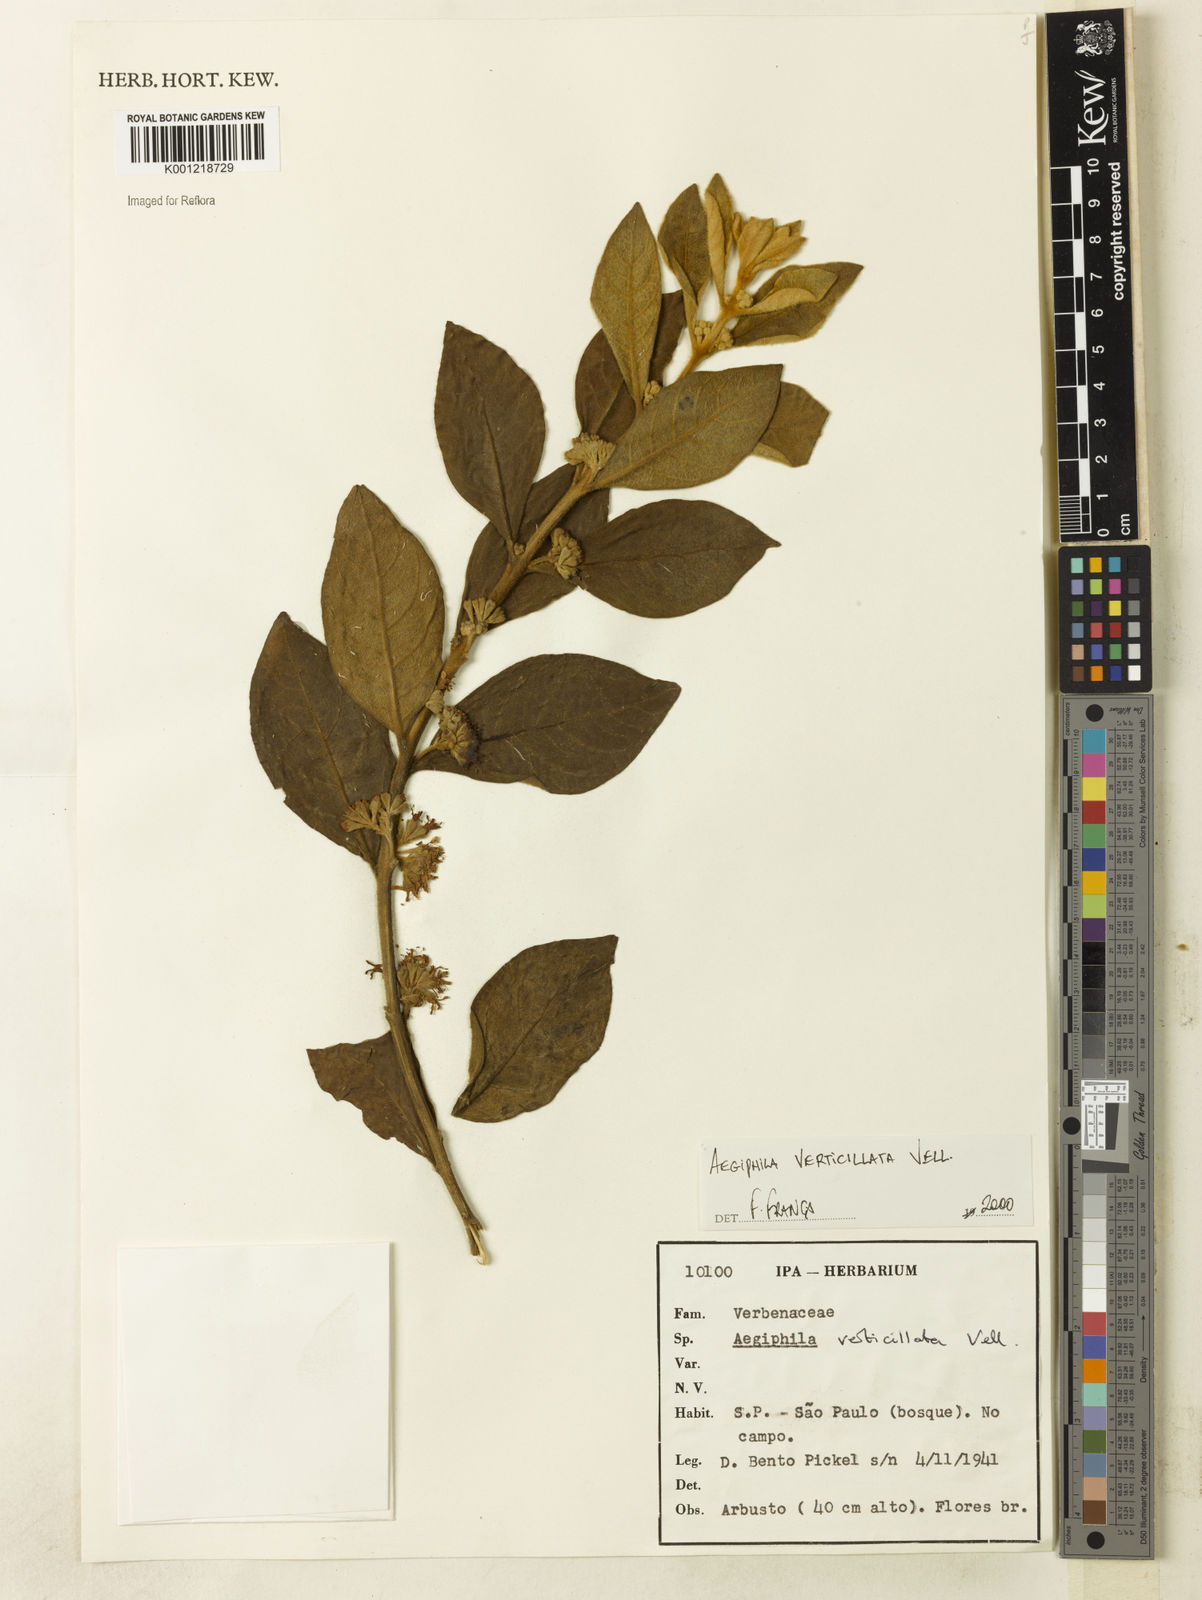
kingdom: Plantae
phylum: Tracheophyta
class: Magnoliopsida
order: Lamiales
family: Lamiaceae
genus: Aegiphila
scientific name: Aegiphila verticillata
